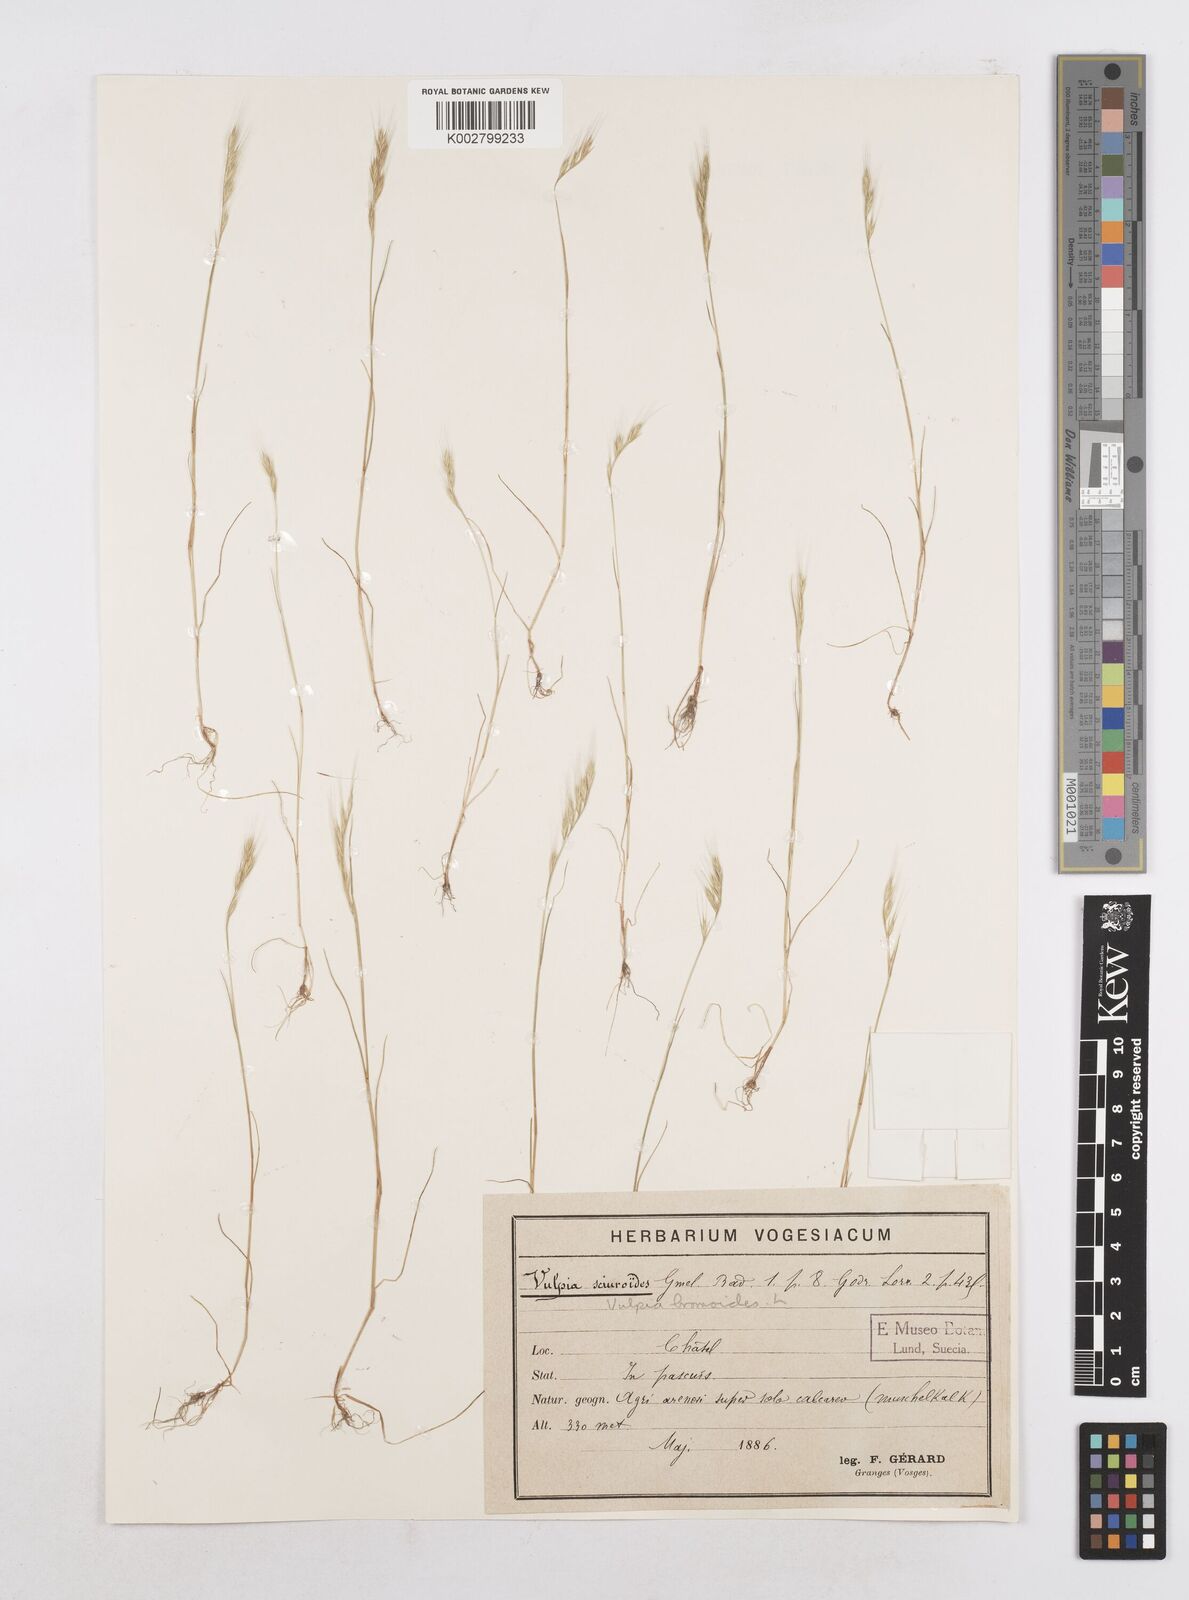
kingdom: Plantae
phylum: Tracheophyta
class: Liliopsida
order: Poales
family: Poaceae
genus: Festuca
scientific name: Festuca bromoides
